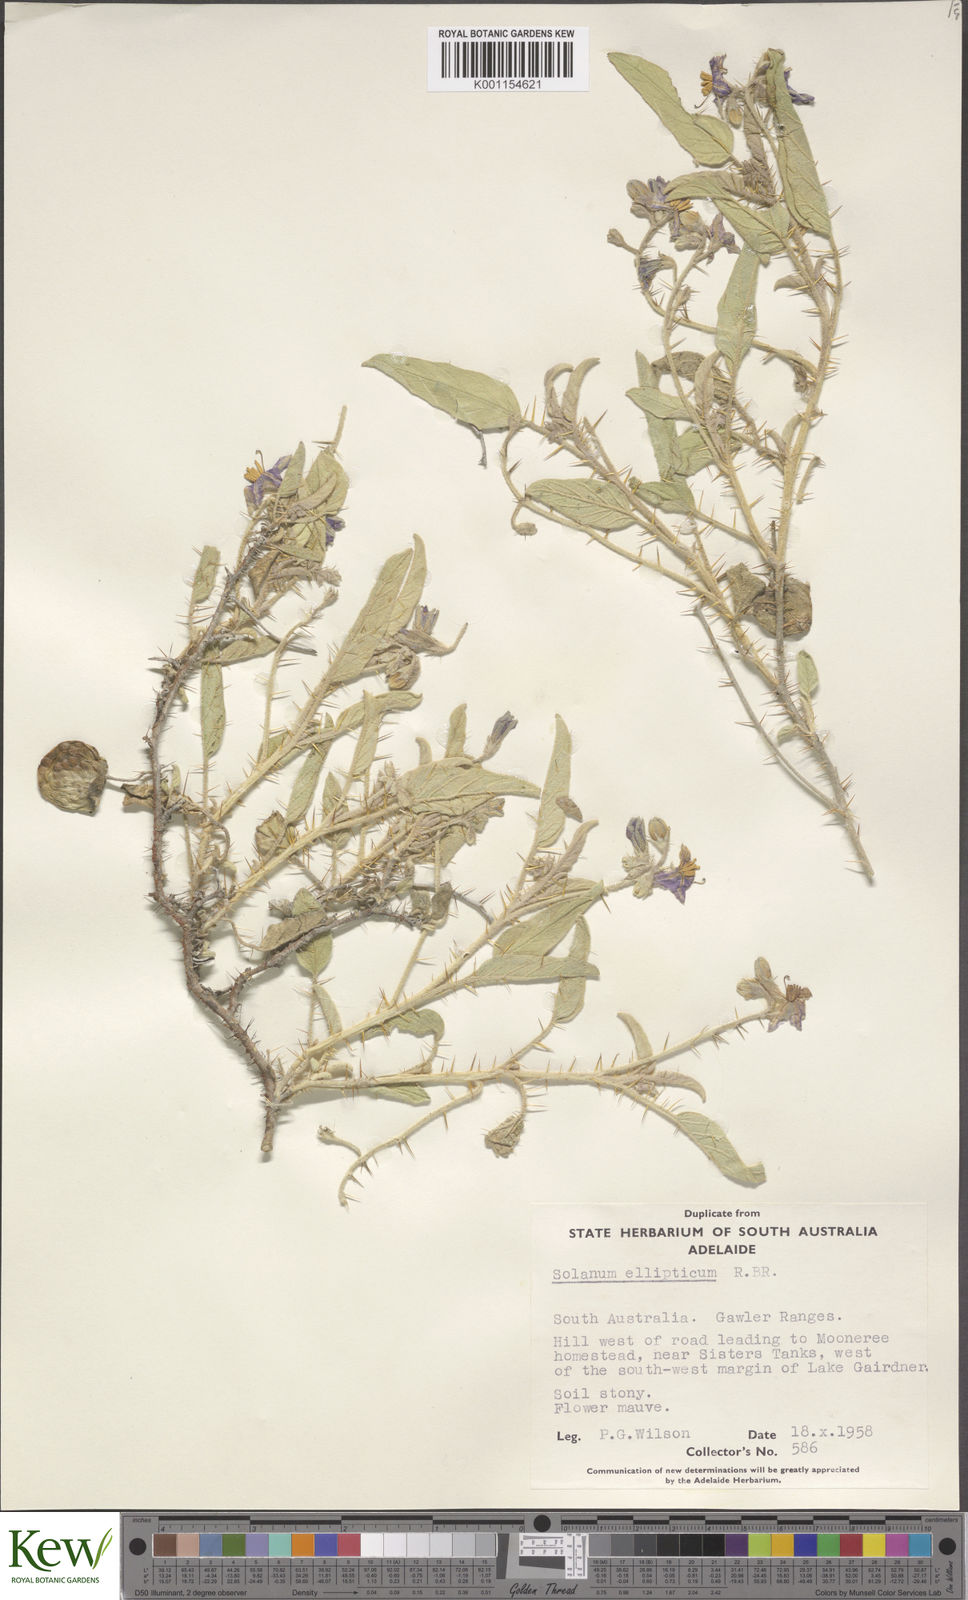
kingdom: Plantae
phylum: Tracheophyta
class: Magnoliopsida
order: Solanales
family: Solanaceae
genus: Solanum
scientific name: Solanum ellipticum
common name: Potato-bush
